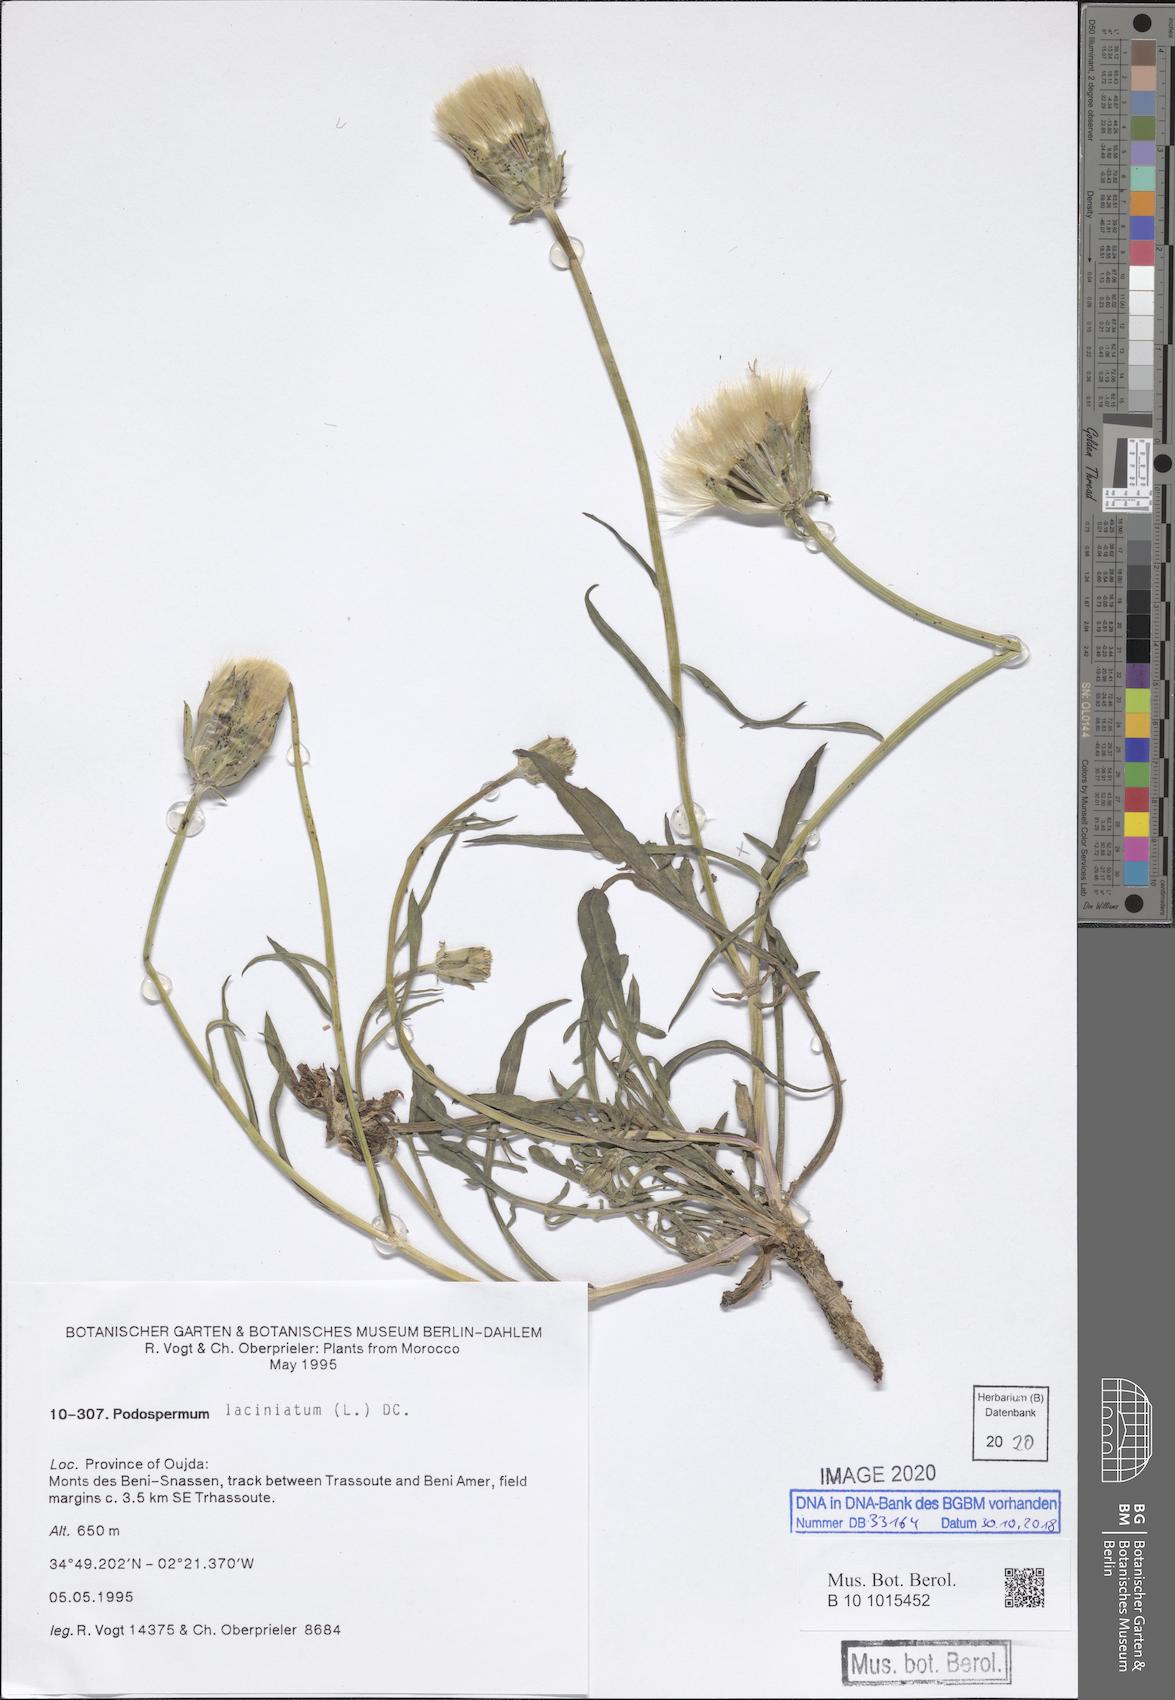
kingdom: Plantae
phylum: Tracheophyta
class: Magnoliopsida
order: Asterales
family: Asteraceae
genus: Scorzonera
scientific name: Scorzonera laciniata
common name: Cutleaf vipergrass
